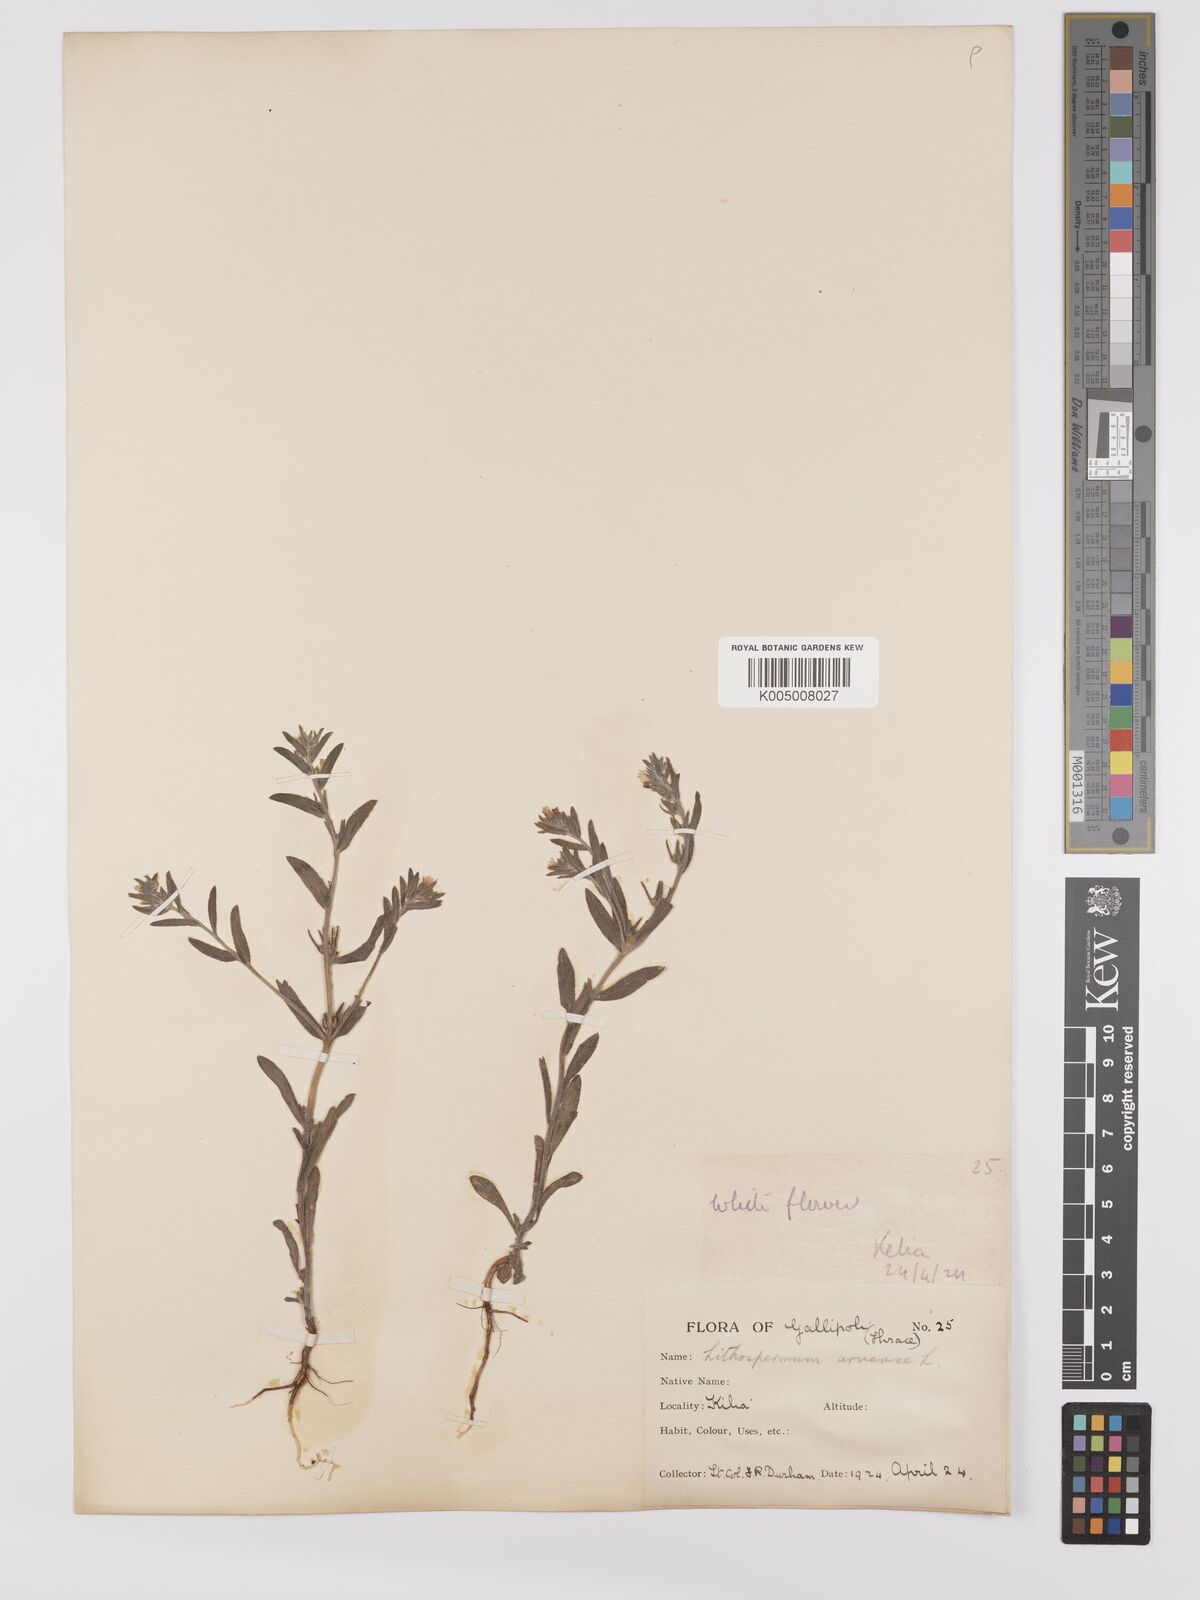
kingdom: Plantae
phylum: Tracheophyta
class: Magnoliopsida
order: Boraginales
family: Boraginaceae
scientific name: Boraginaceae
